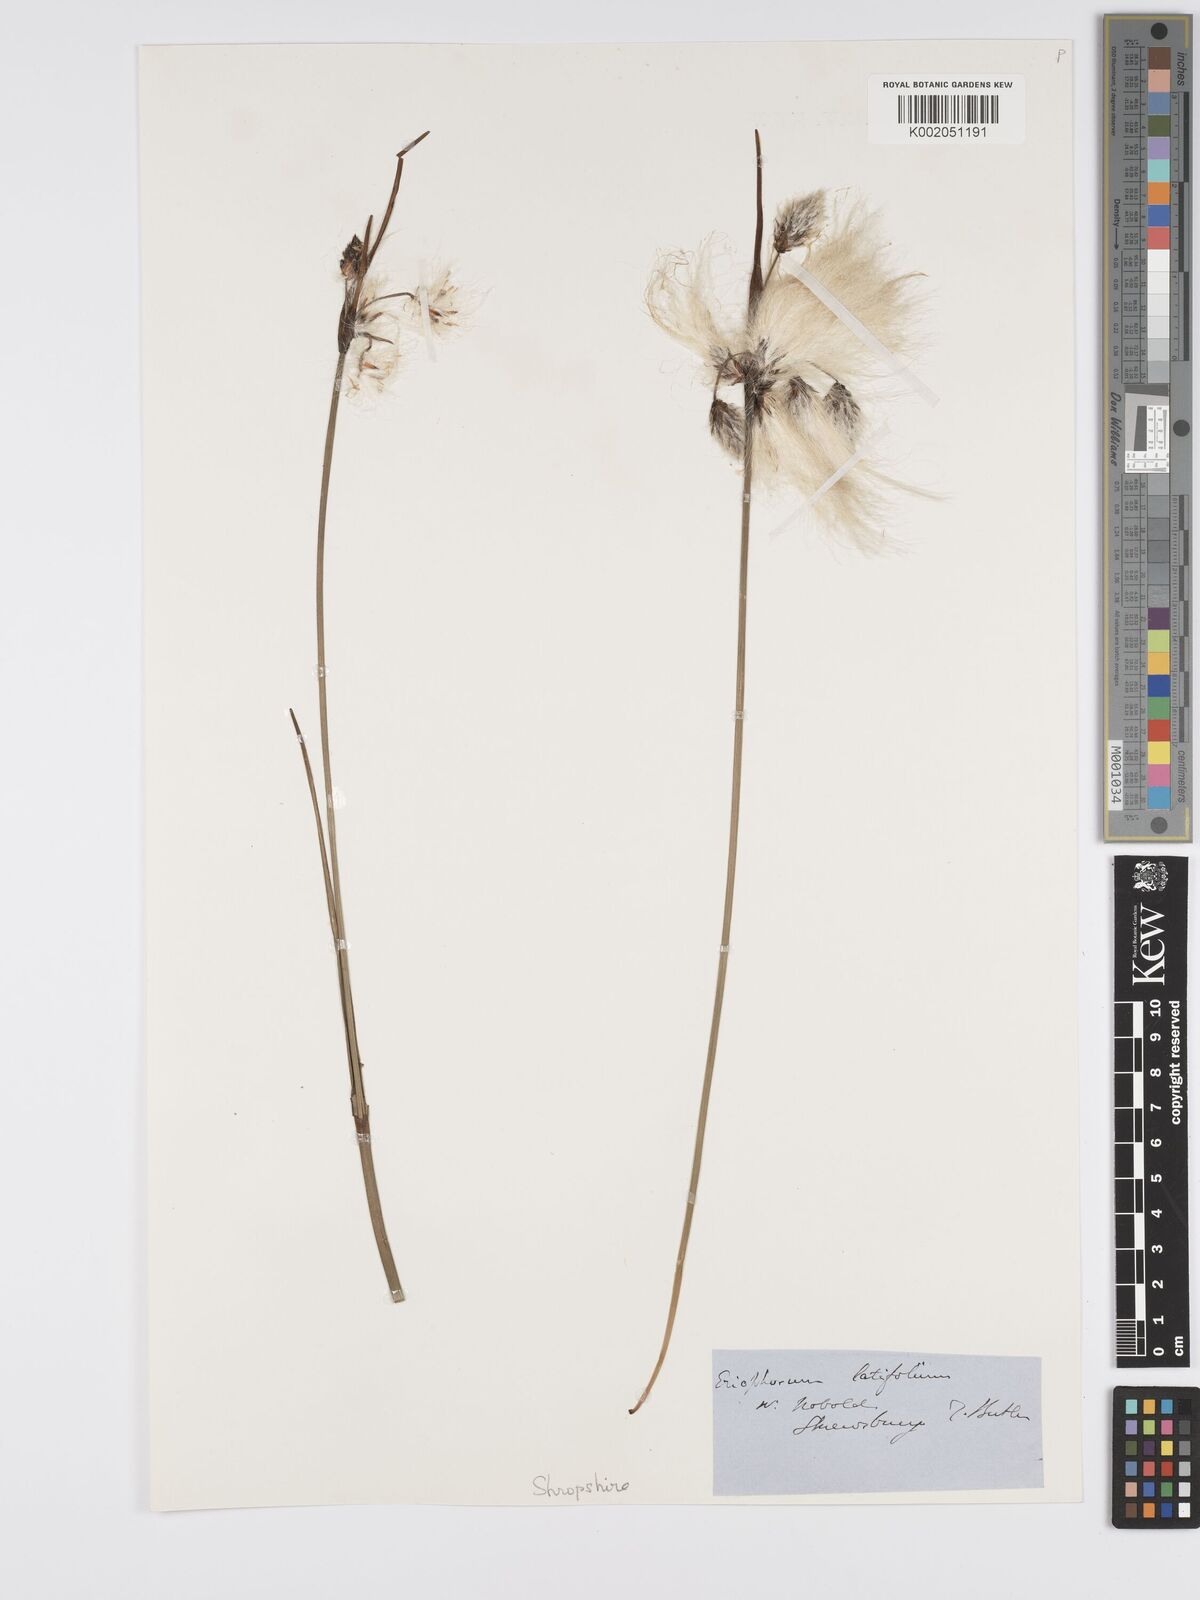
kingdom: Plantae
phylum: Tracheophyta
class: Liliopsida
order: Poales
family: Cyperaceae
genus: Eriophorum
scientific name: Eriophorum latifolium
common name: Broad-leaved cottongrass
